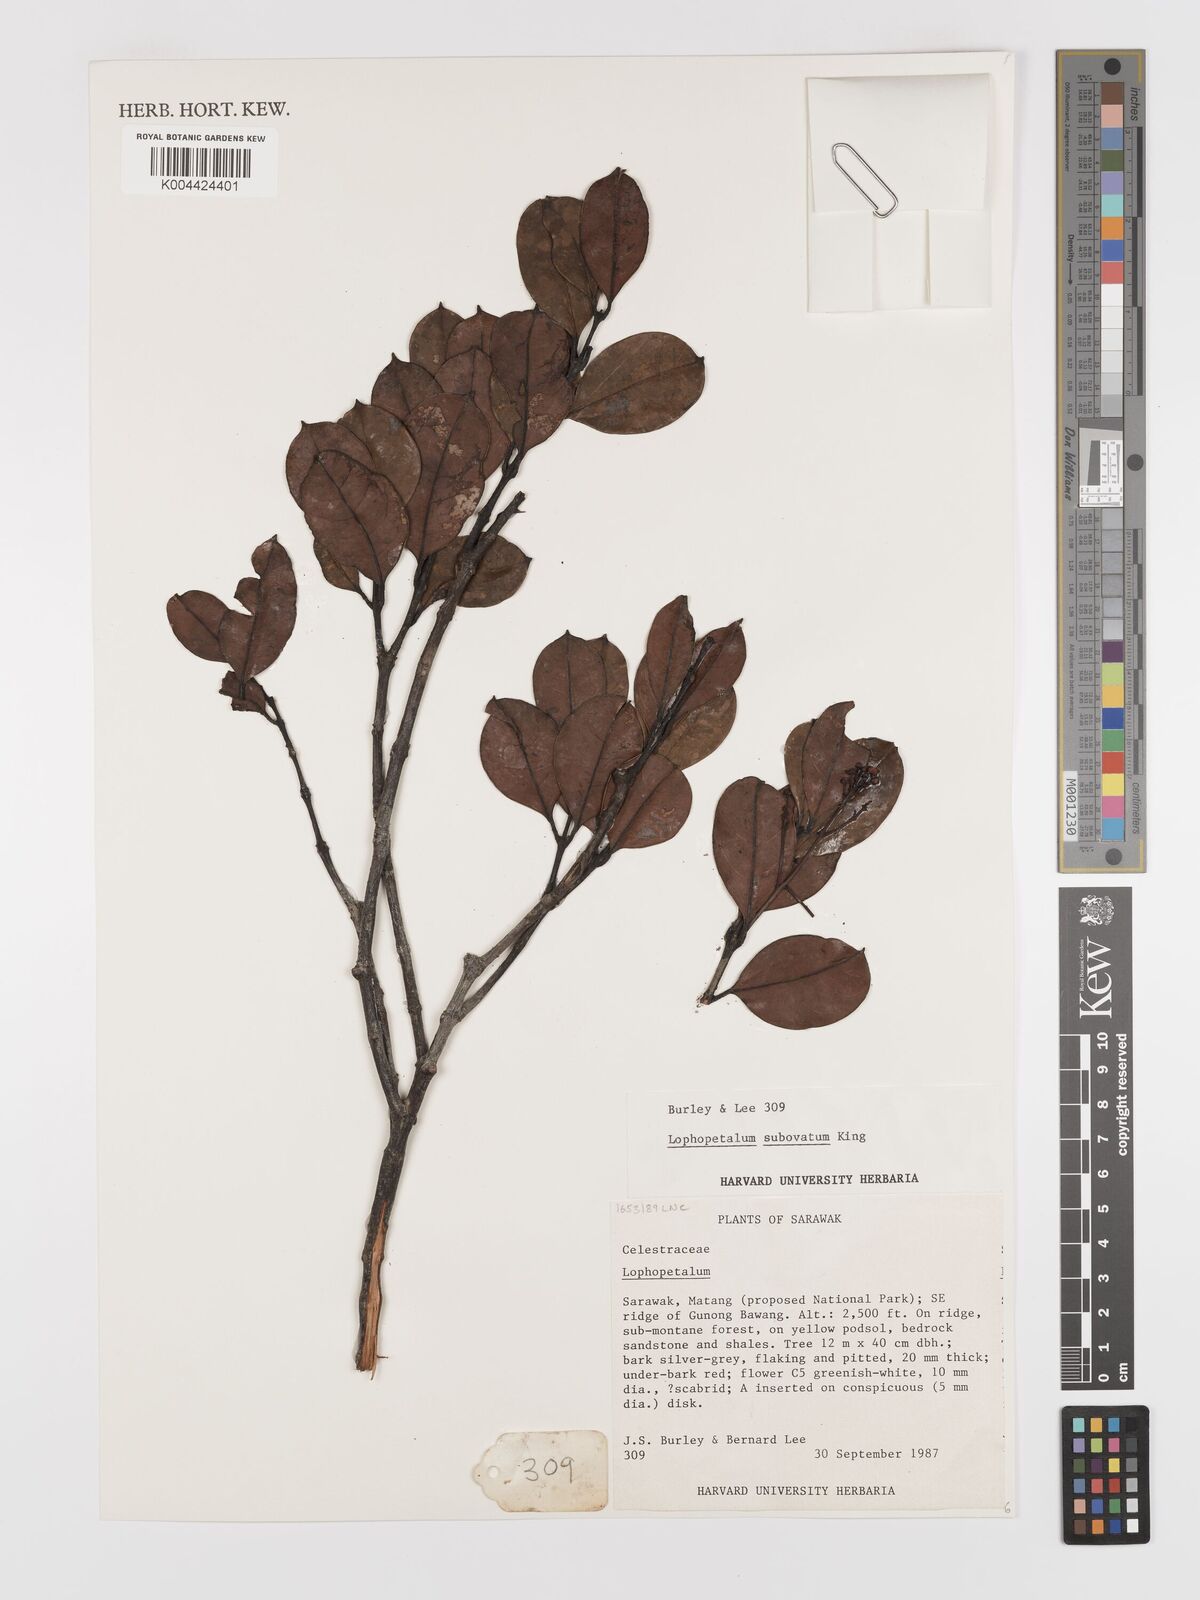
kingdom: Plantae
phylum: Tracheophyta
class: Magnoliopsida
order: Celastrales
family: Celastraceae
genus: Lophopetalum
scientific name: Lophopetalum
